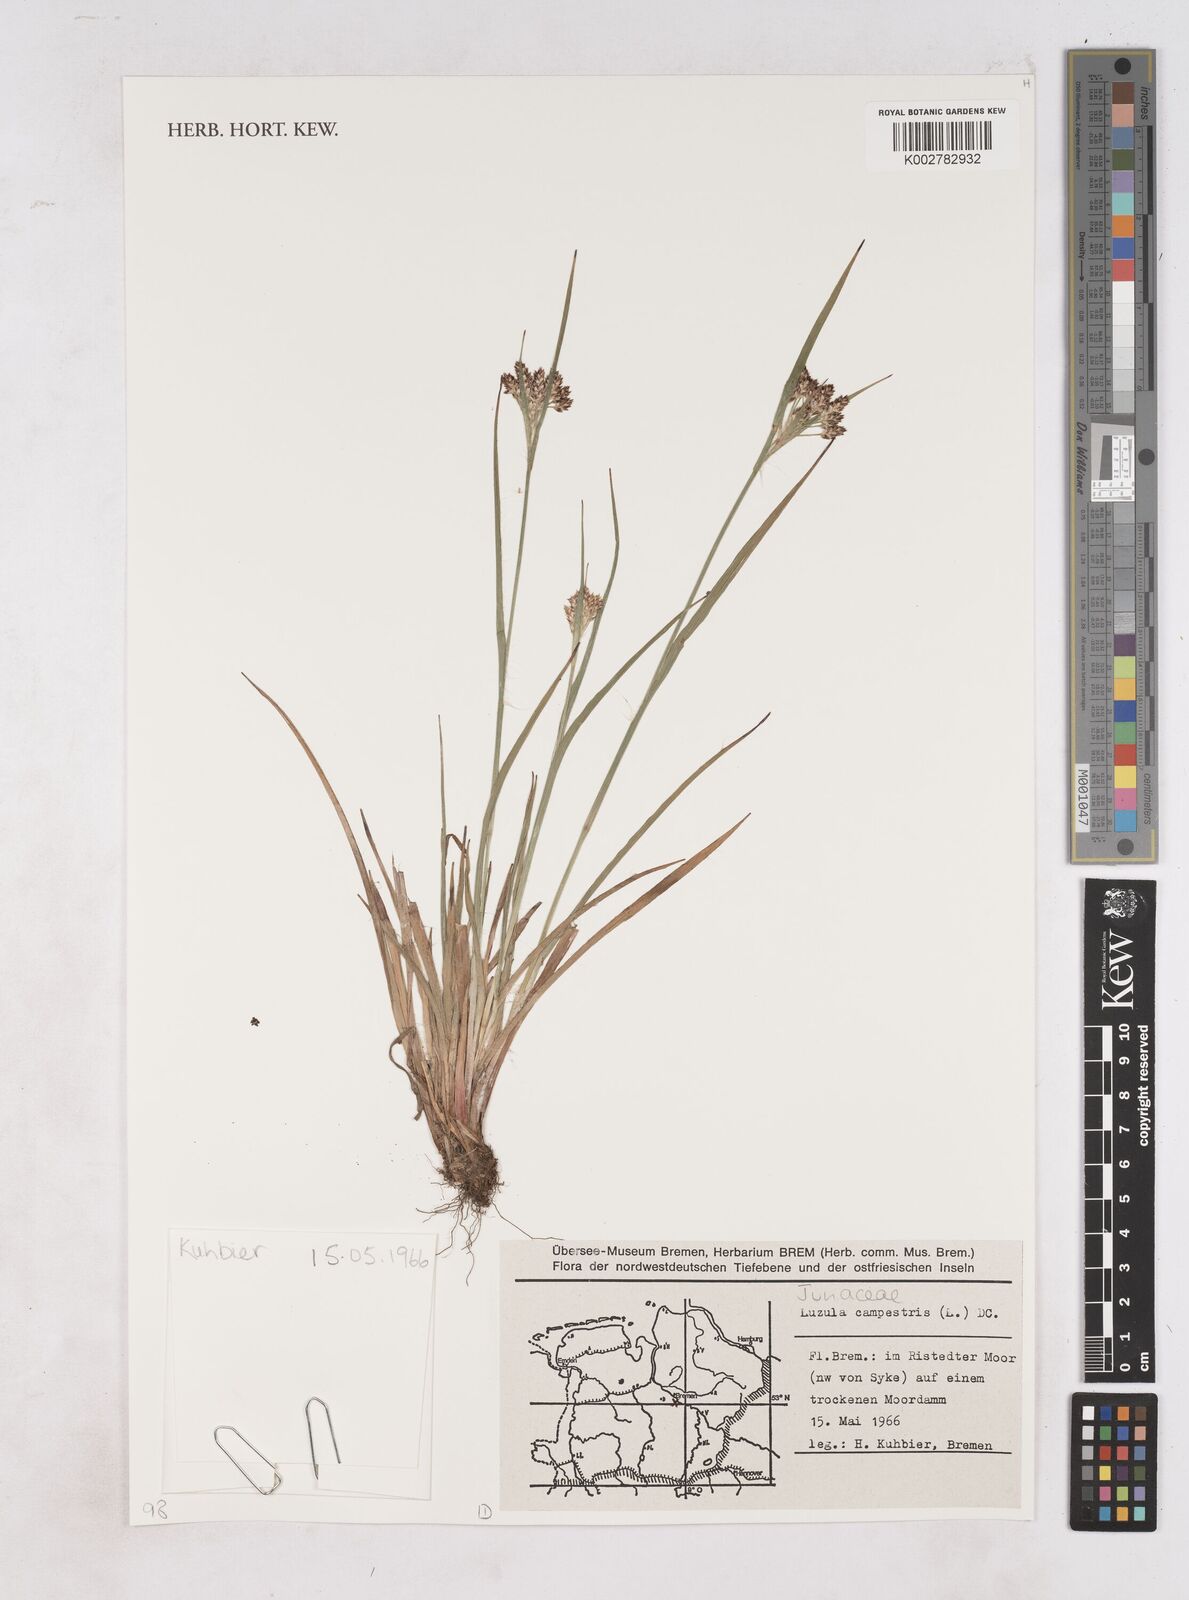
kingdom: Plantae
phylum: Tracheophyta
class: Liliopsida
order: Poales
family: Juncaceae
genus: Luzula
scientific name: Luzula campestris
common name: Field wood-rush
